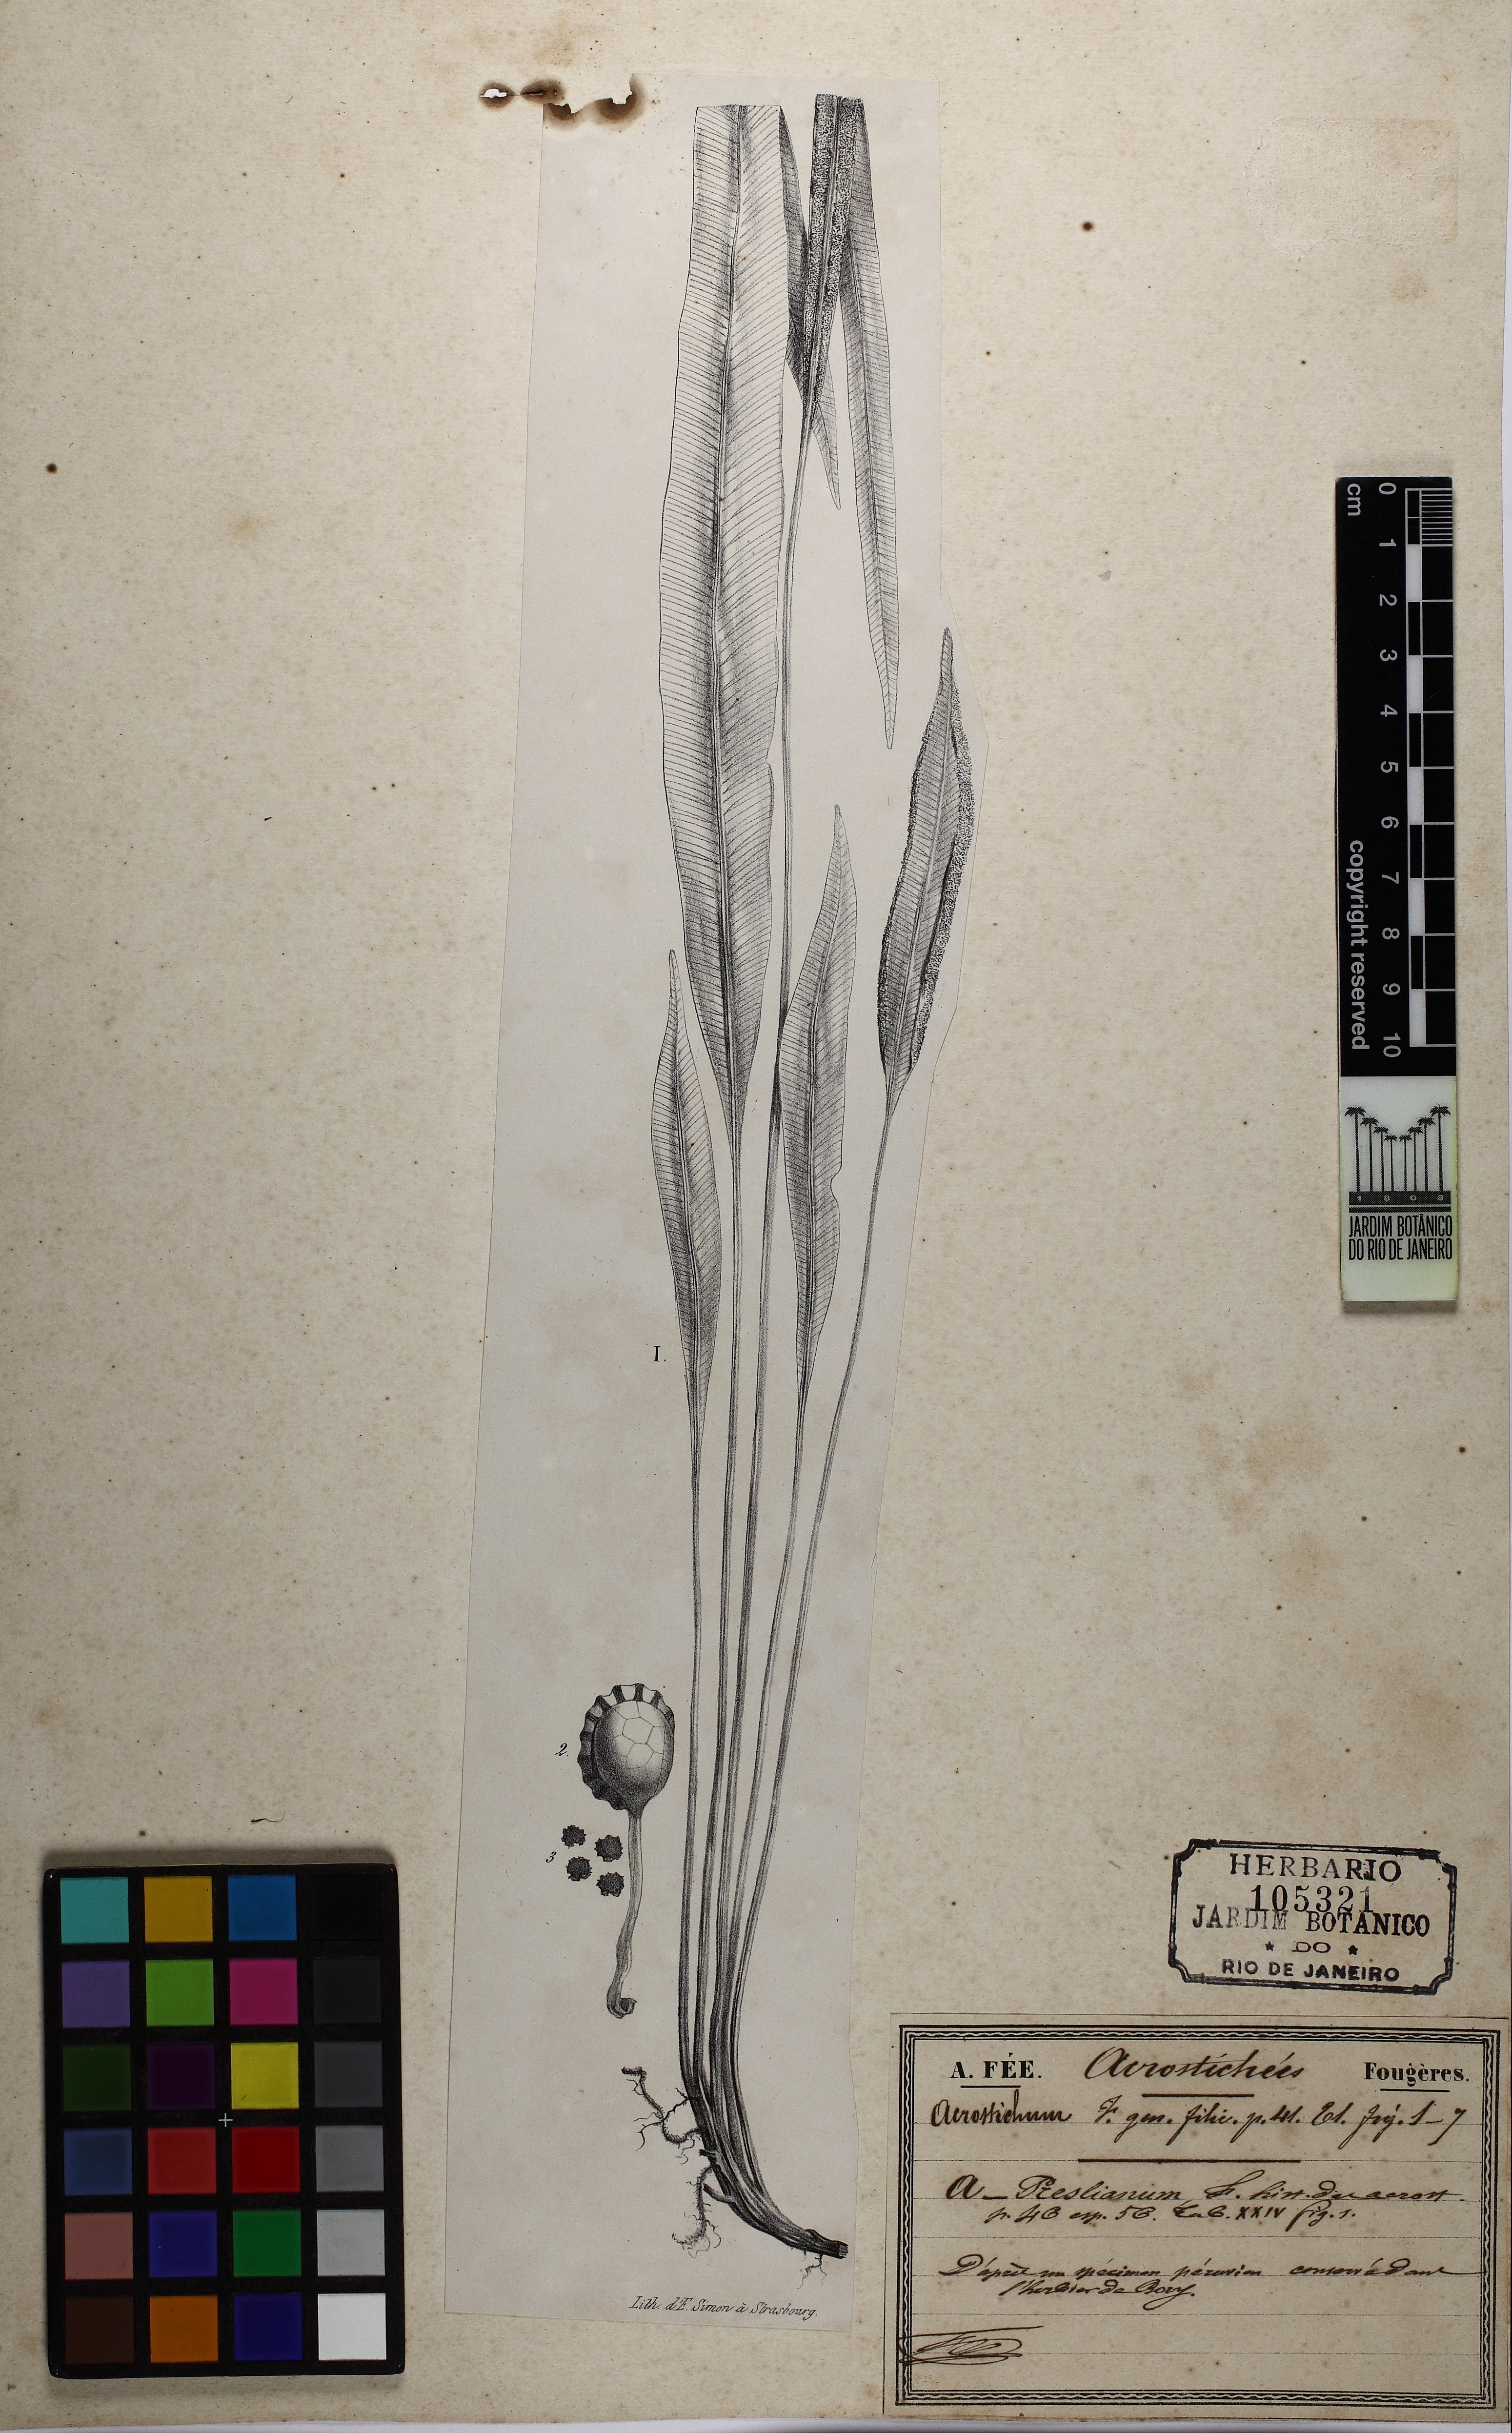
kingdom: Plantae
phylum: Tracheophyta
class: Polypodiopsida
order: Polypodiales
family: Dryopteridaceae
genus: Elaphoglossum
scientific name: Elaphoglossum ciliatum
